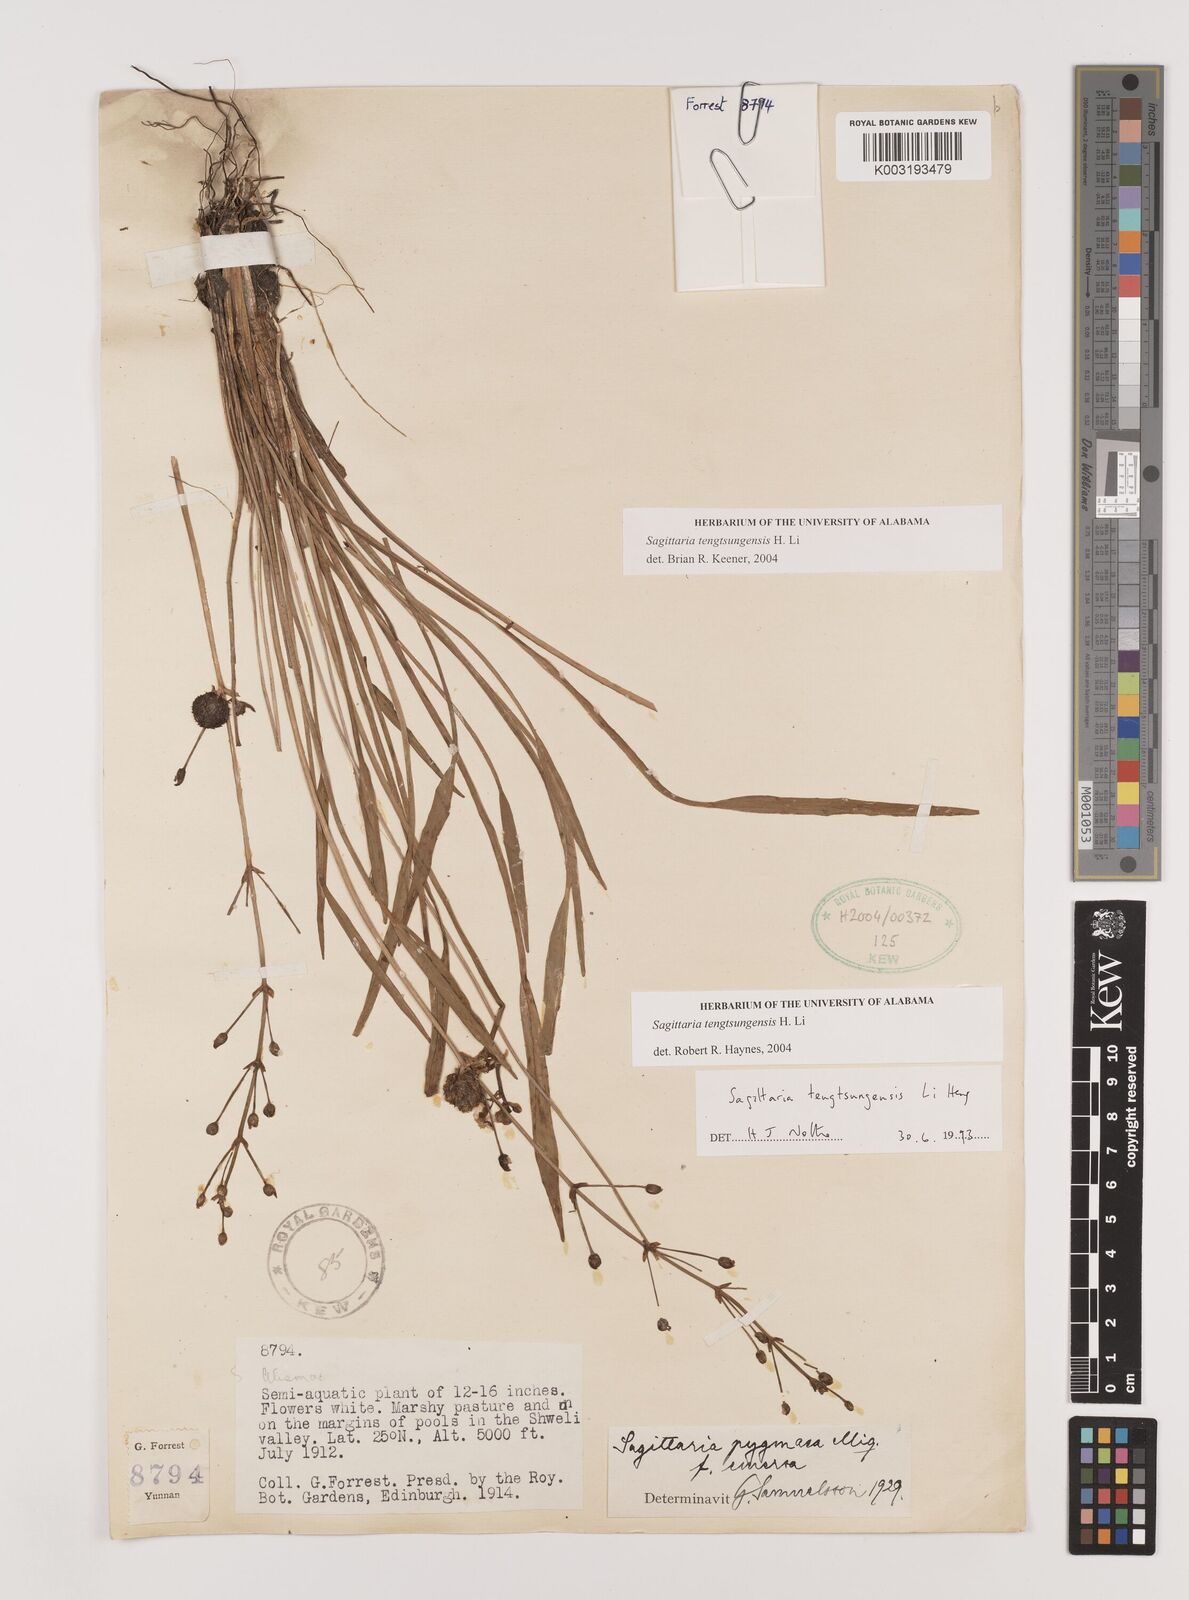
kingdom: Plantae
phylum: Tracheophyta
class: Liliopsida
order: Alismatales
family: Alismataceae
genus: Sagittaria
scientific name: Sagittaria tengtsungensis
